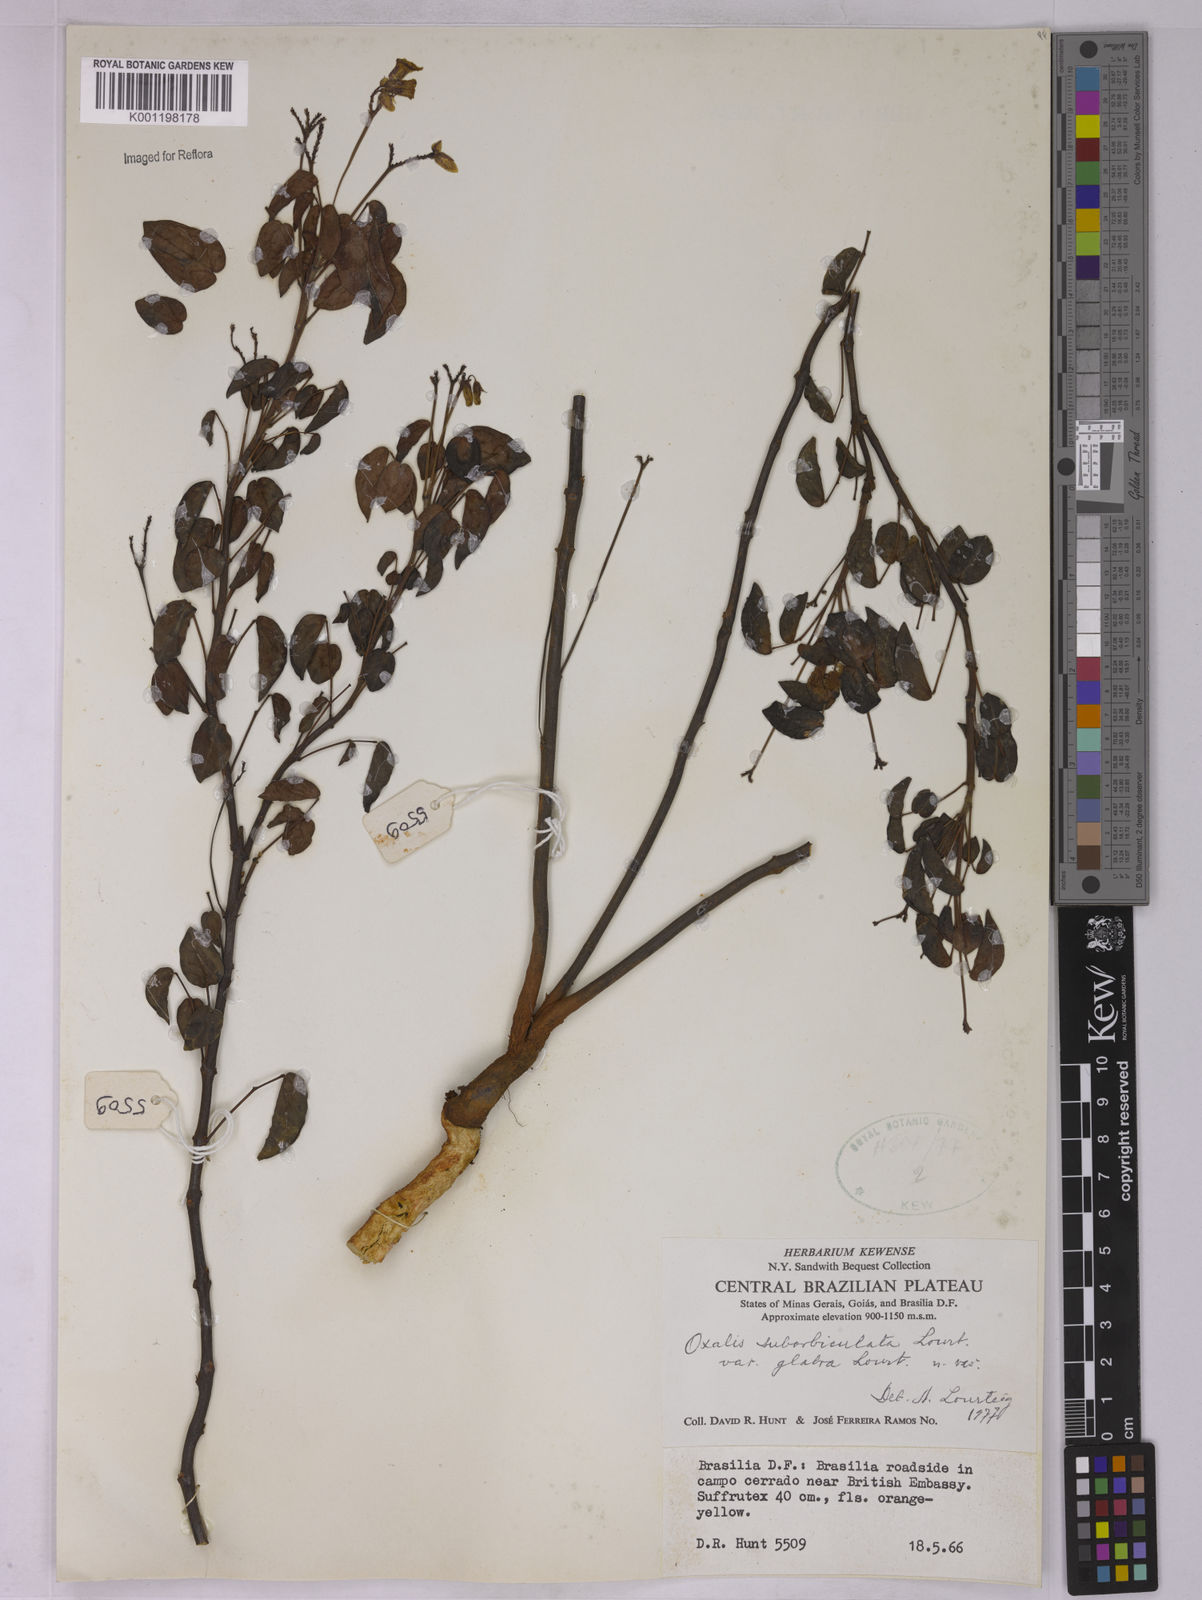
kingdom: Plantae
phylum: Tracheophyta
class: Magnoliopsida
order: Oxalidales
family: Oxalidaceae
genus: Oxalis
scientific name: Oxalis suborbiculata
